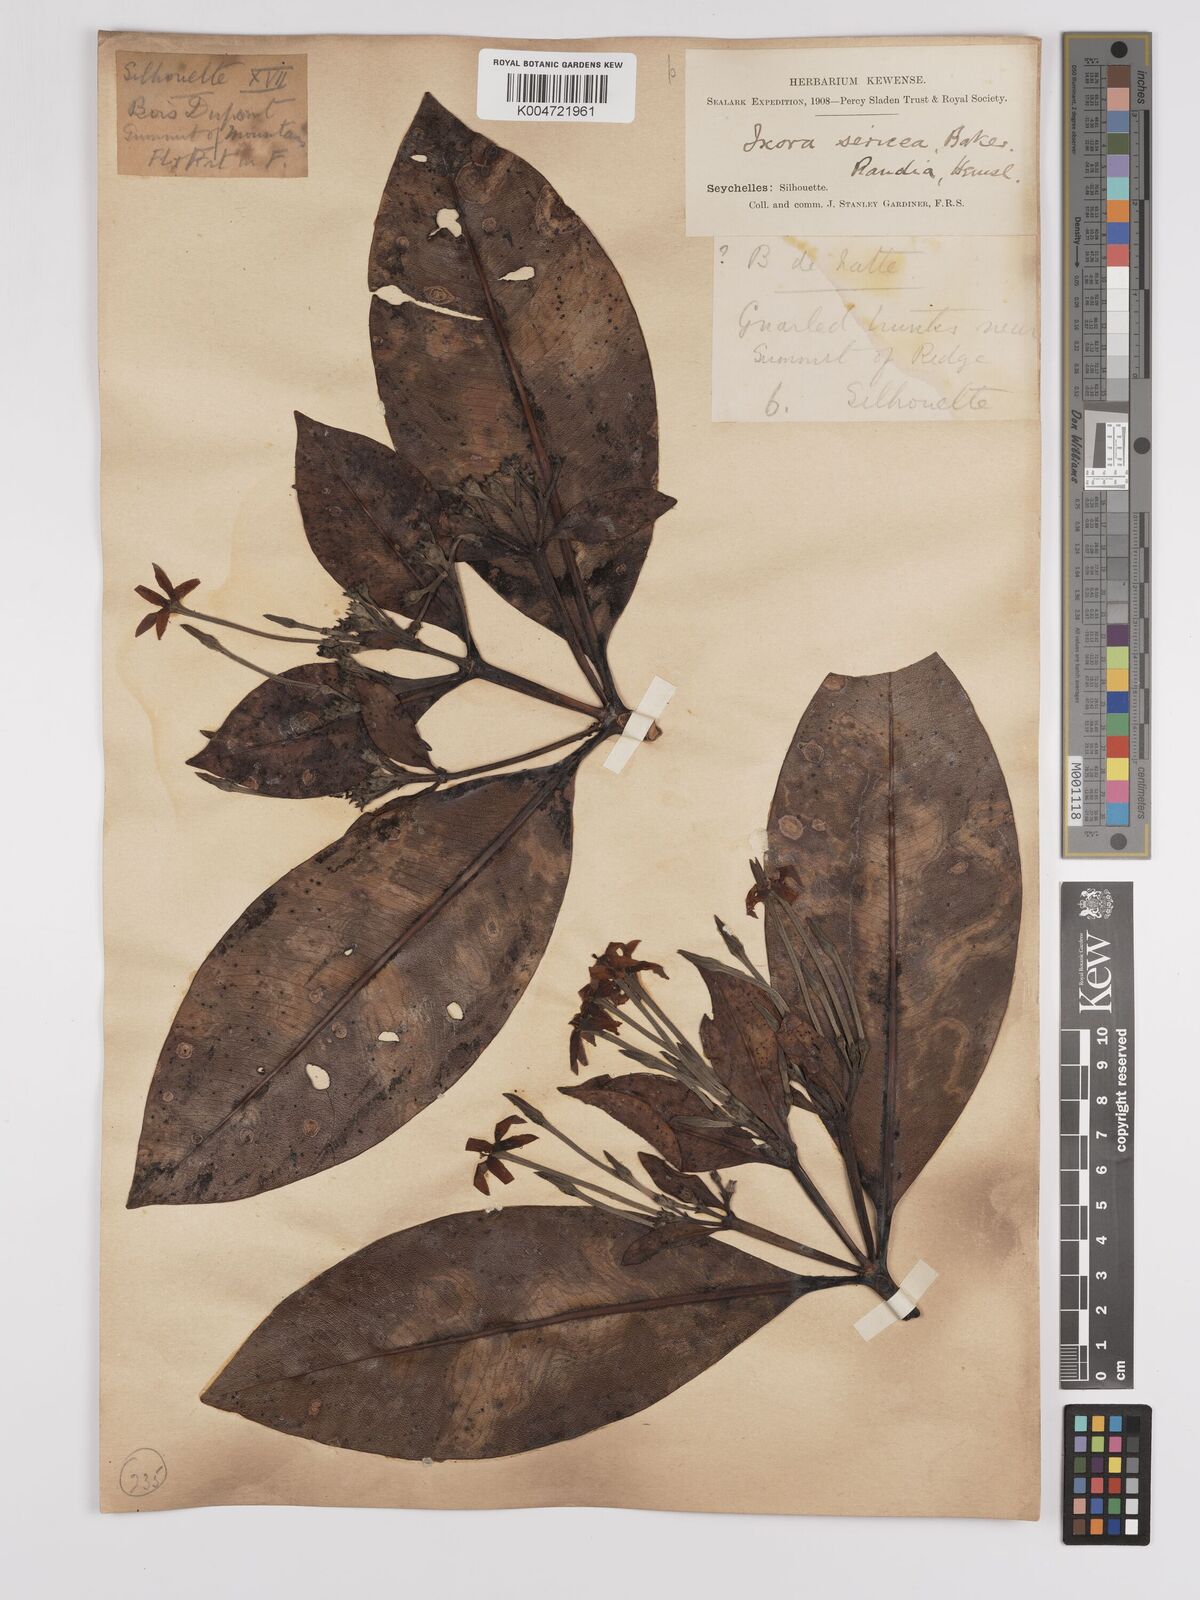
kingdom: Plantae
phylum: Tracheophyta
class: Magnoliopsida
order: Gentianales
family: Rubiaceae
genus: Glionnetia
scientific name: Glionnetia sericea
